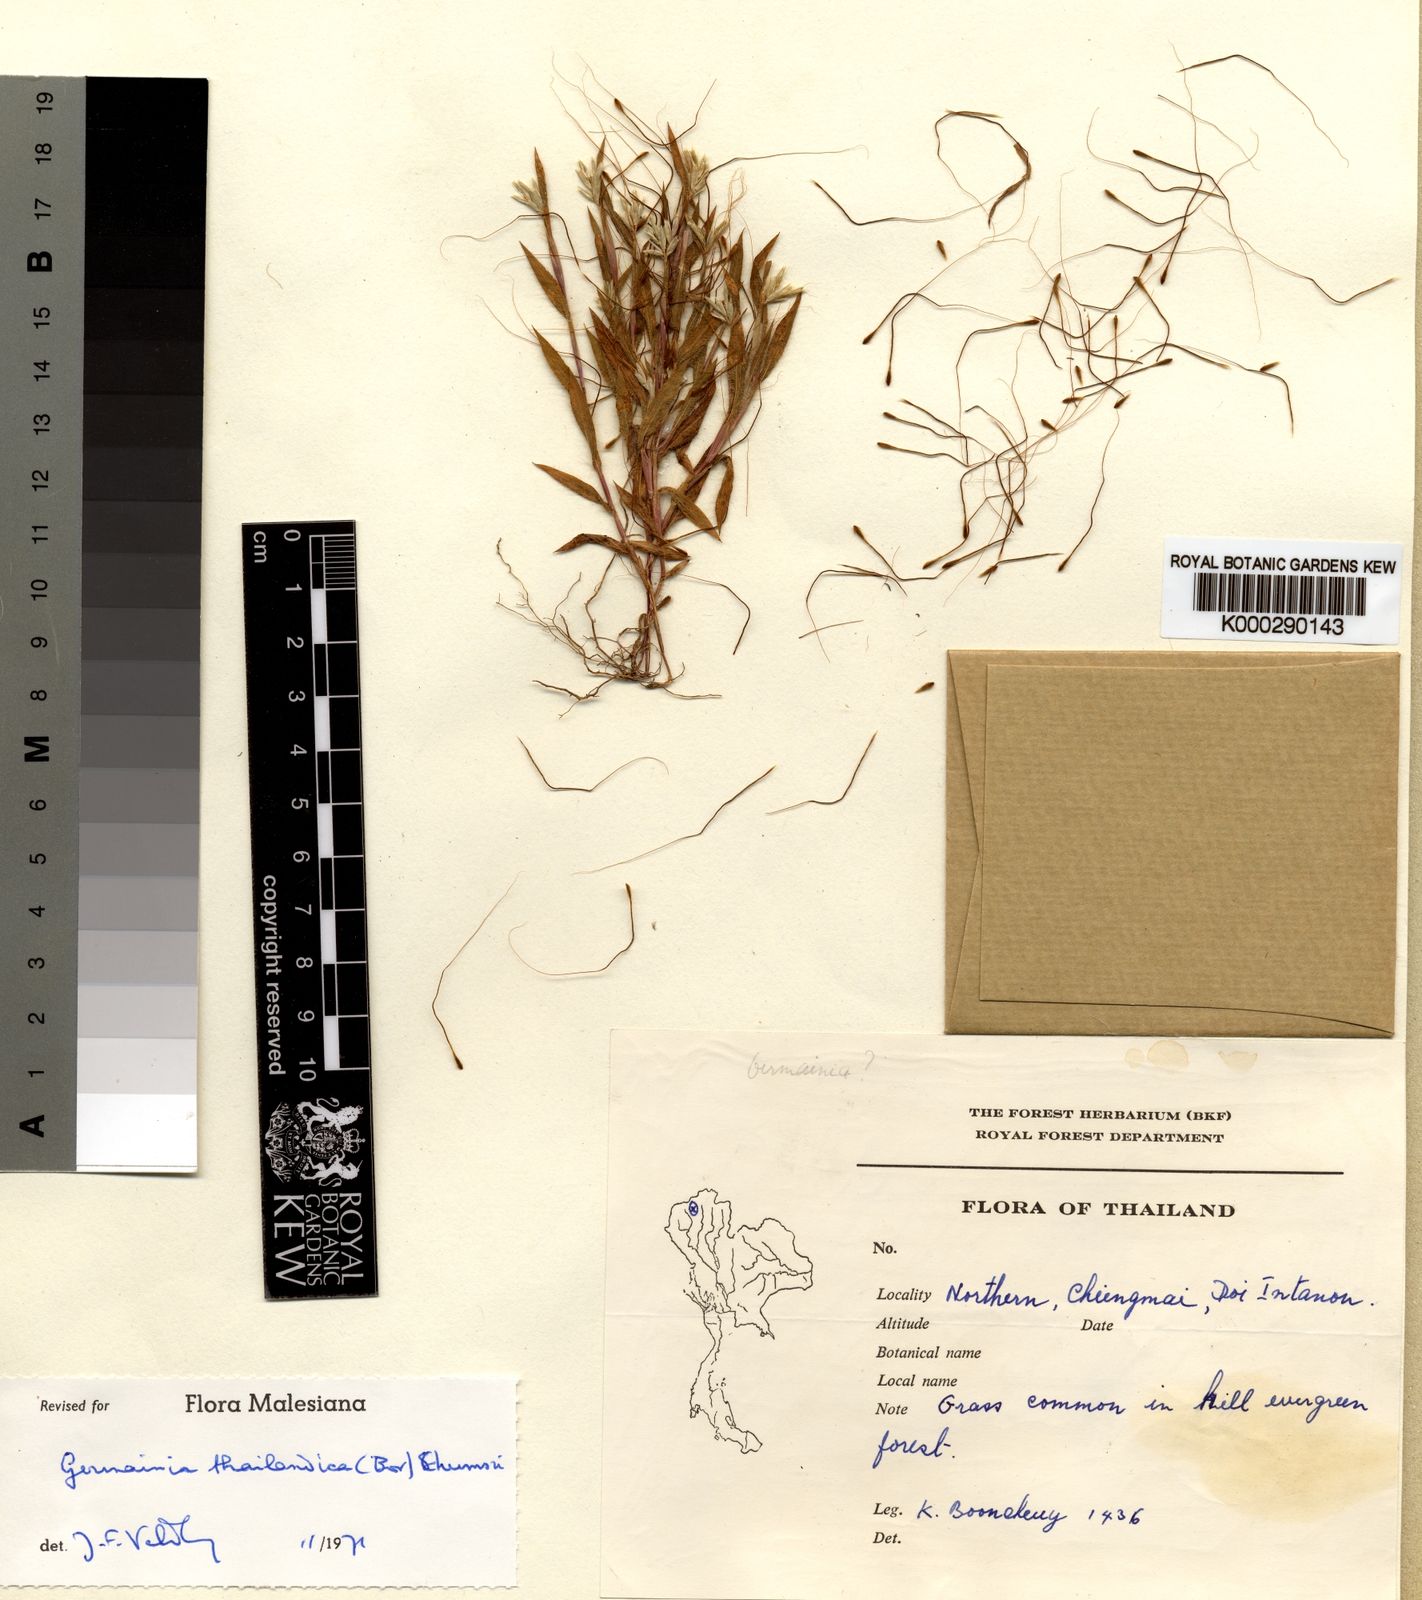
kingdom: Plantae
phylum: Tracheophyta
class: Liliopsida
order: Poales
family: Poaceae
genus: Germainia
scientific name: Germainia thailandica
